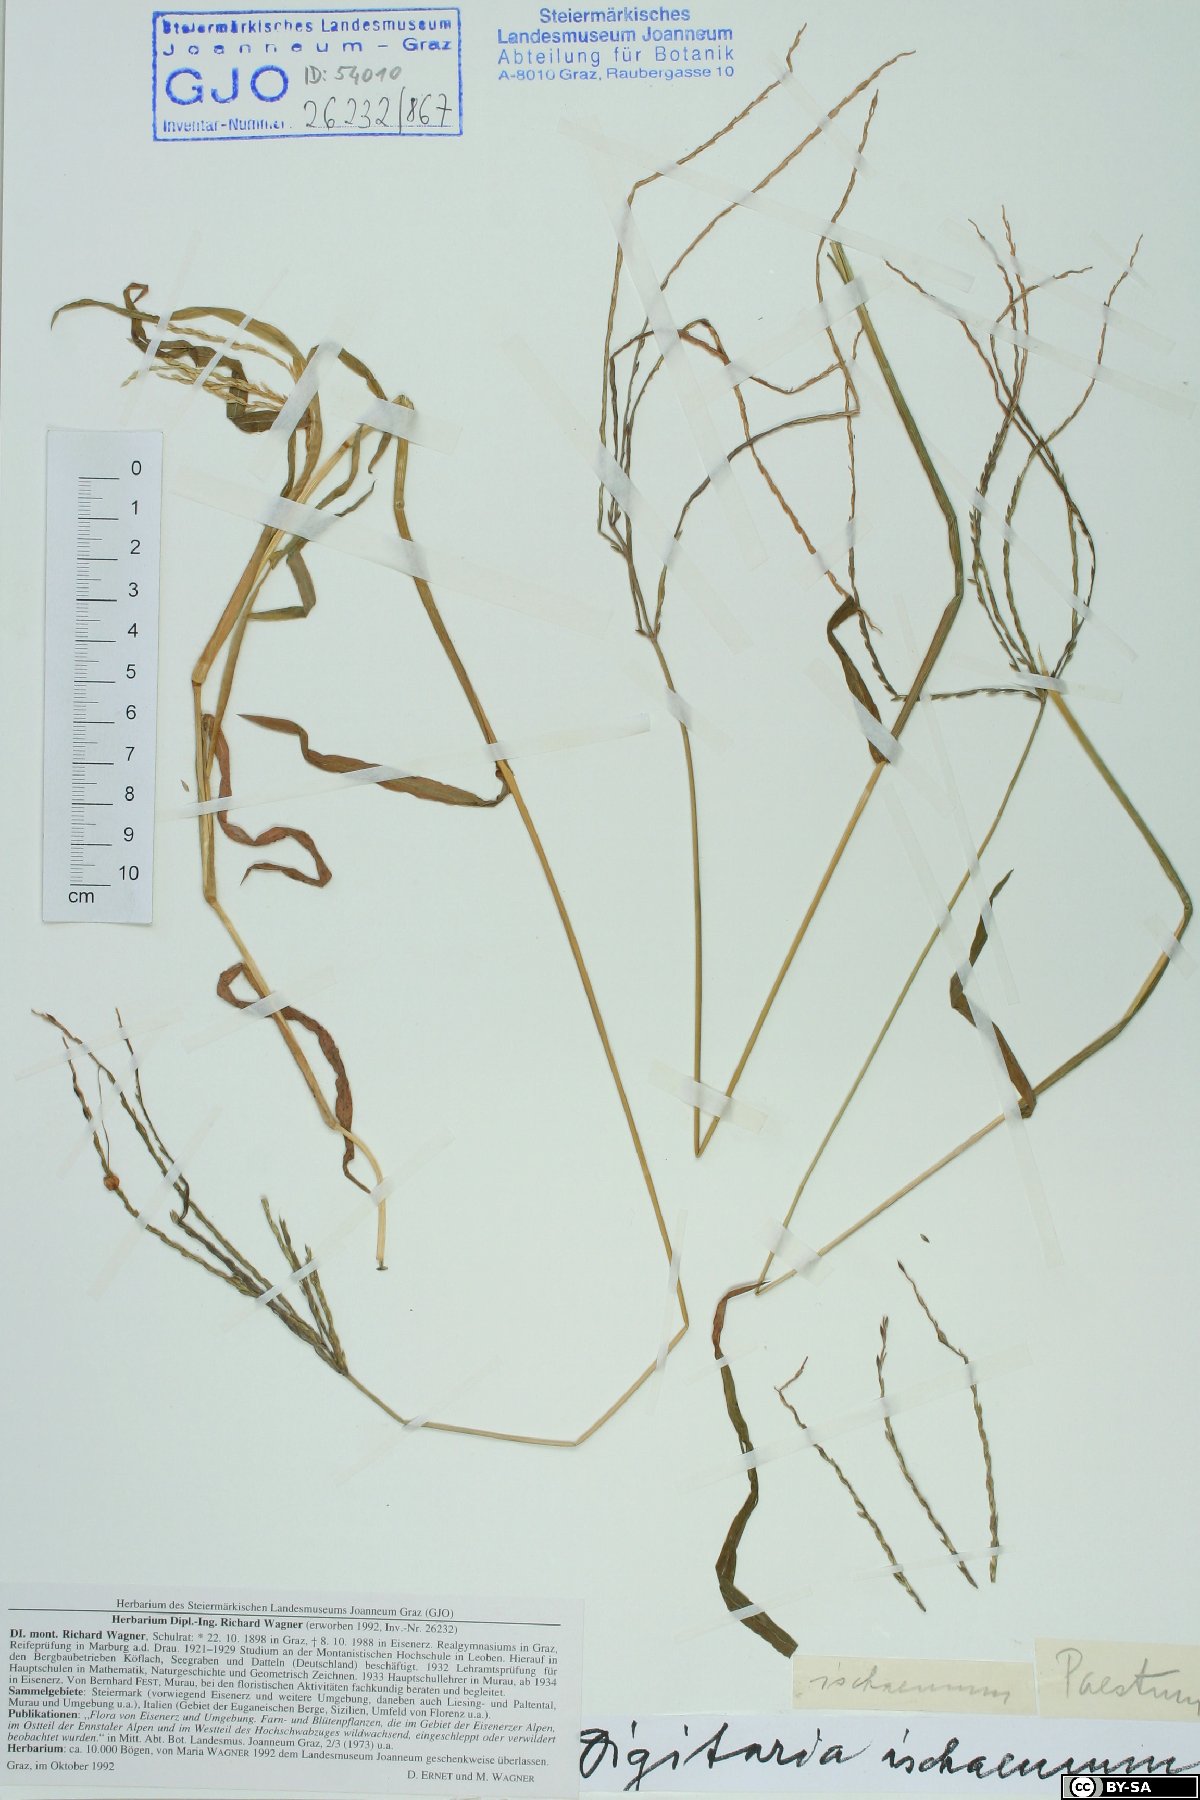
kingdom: Plantae
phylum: Tracheophyta
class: Liliopsida
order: Poales
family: Poaceae
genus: Digitaria
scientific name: Digitaria ischaemum
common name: Smooth crabgrass
